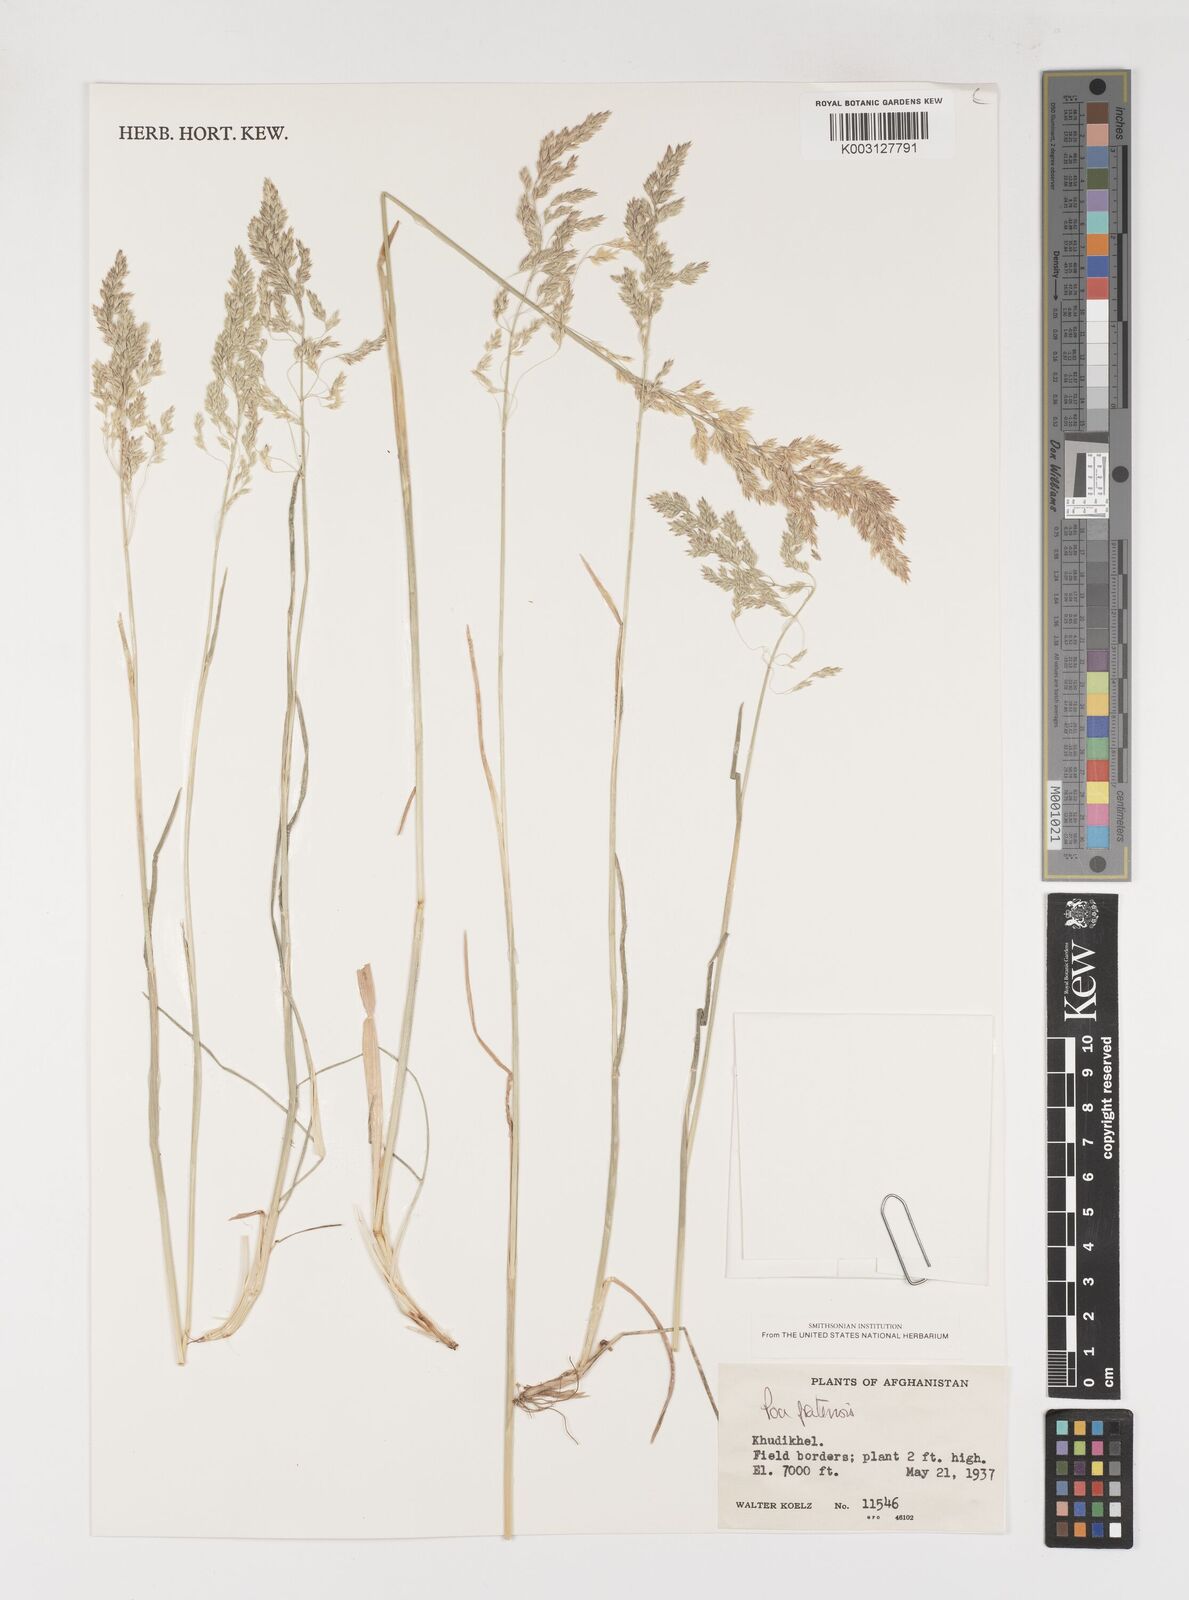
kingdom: Plantae
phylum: Tracheophyta
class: Liliopsida
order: Poales
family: Poaceae
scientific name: Poaceae
